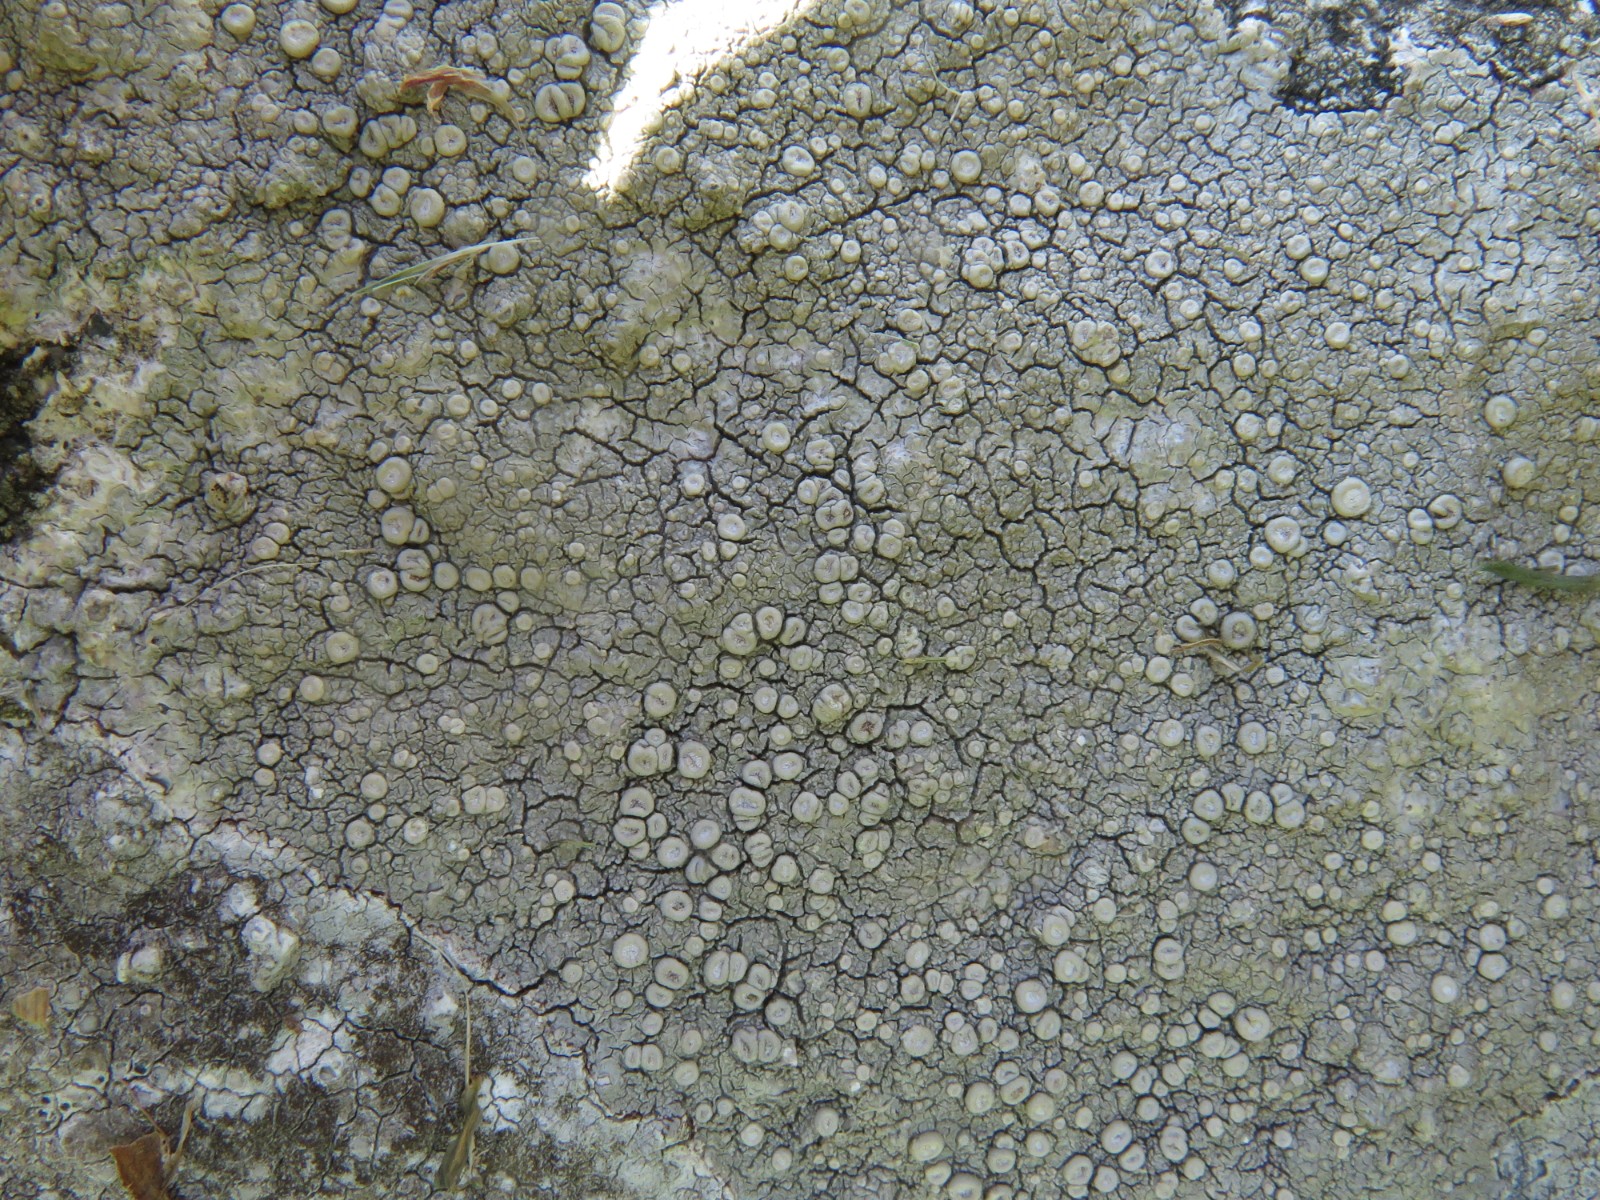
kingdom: Fungi
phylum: Ascomycota
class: Lecanoromycetes
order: Pertusariales
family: Ochrolechiaceae
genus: Ochrolechia
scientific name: Ochrolechia parella
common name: almindelig blegskivelav
